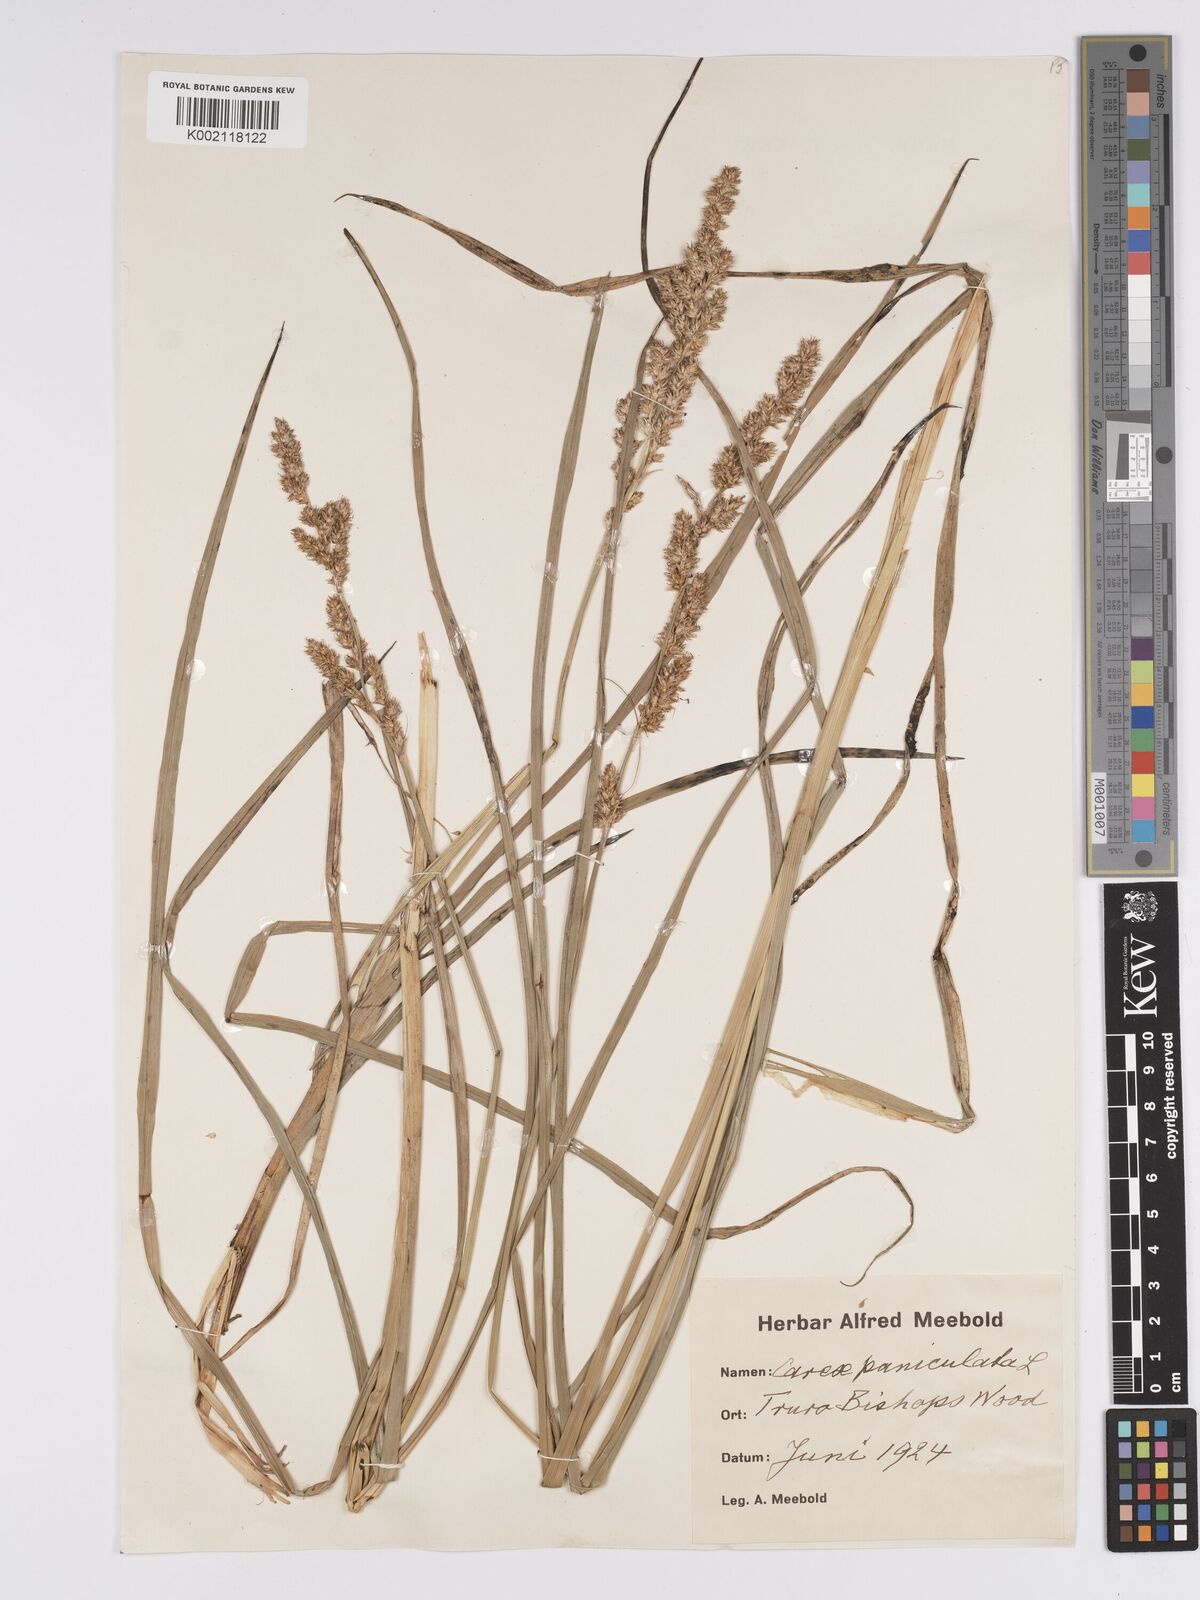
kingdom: Plantae
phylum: Tracheophyta
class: Liliopsida
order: Poales
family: Cyperaceae
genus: Carex
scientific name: Carex paniculata
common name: Greater tussock-sedge
